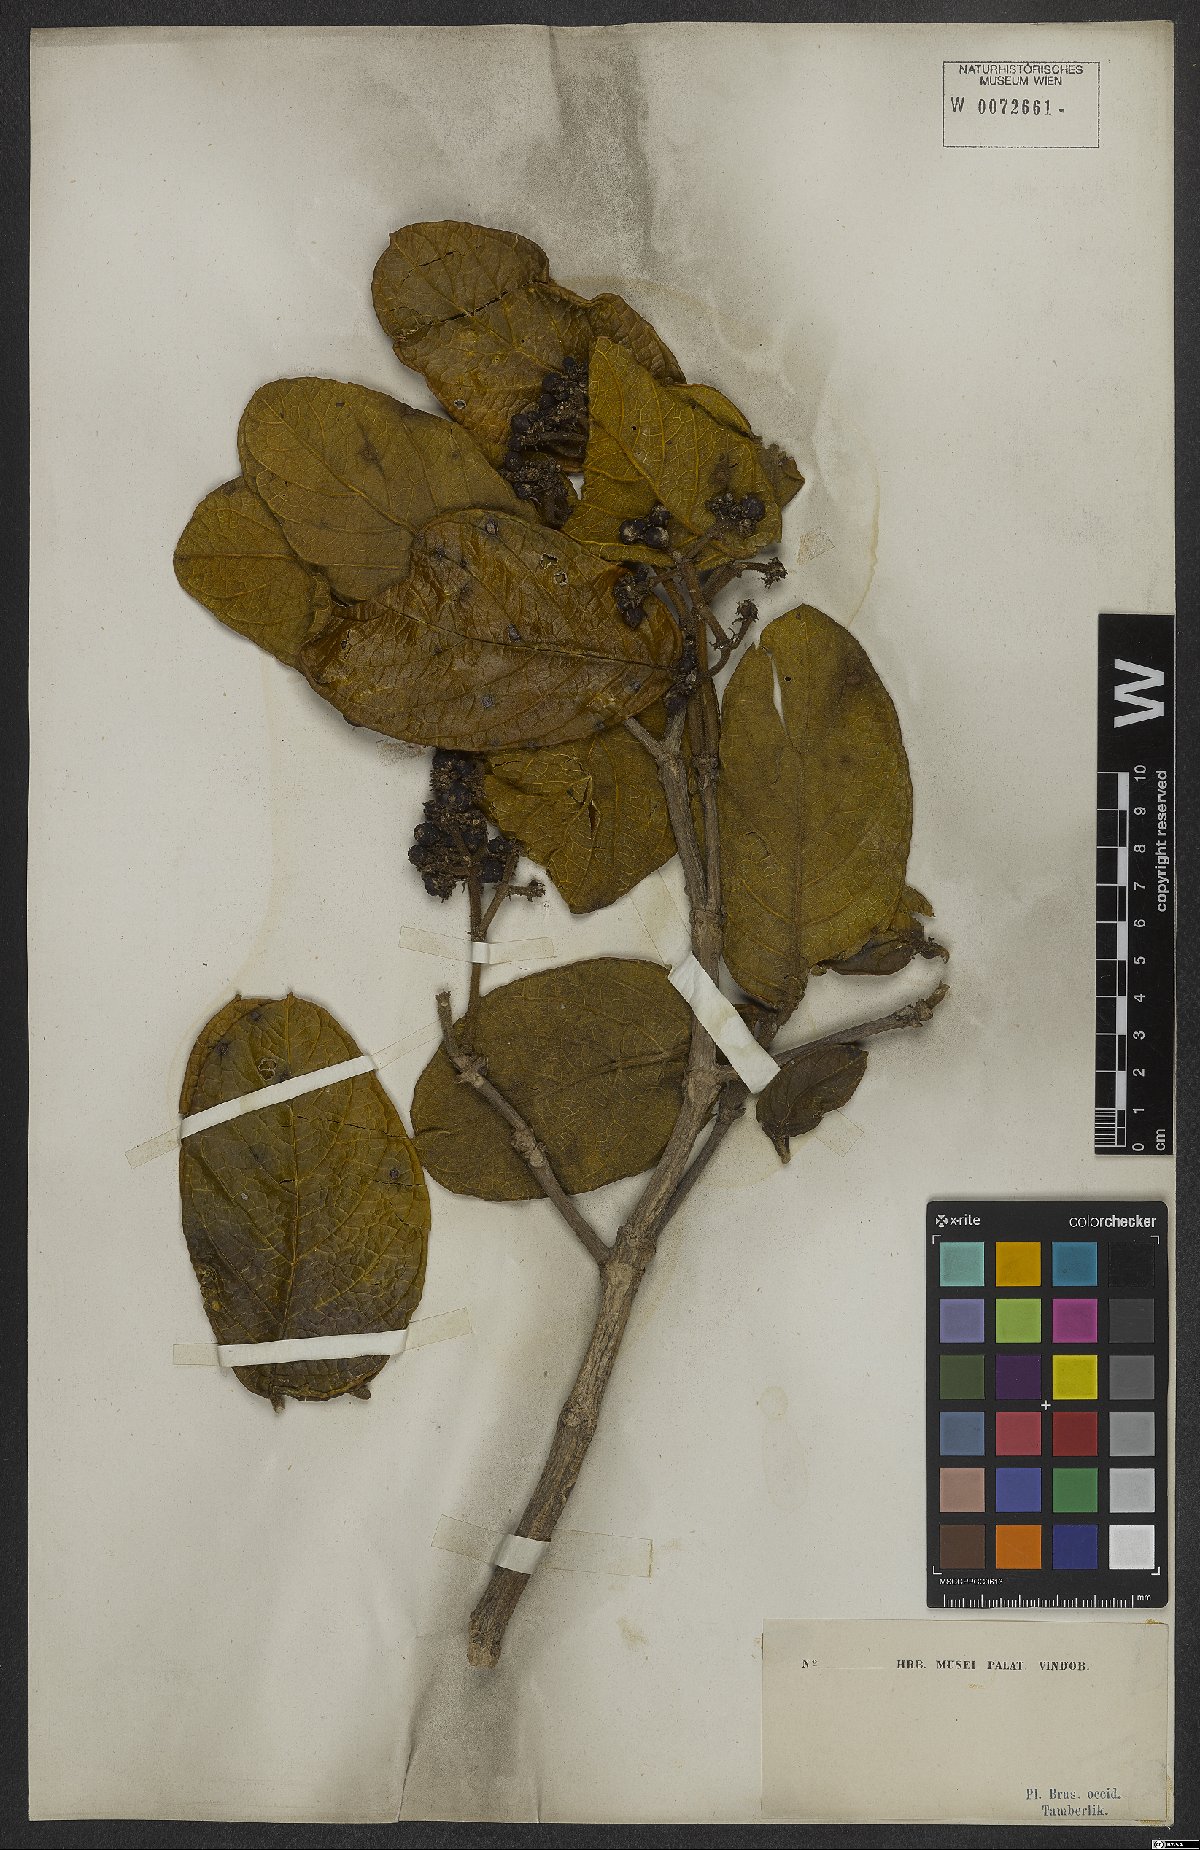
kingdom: Plantae
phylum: Tracheophyta
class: Magnoliopsida
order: Gentianales
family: Rubiaceae
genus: Rudgea
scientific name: Rudgea viburnoides
